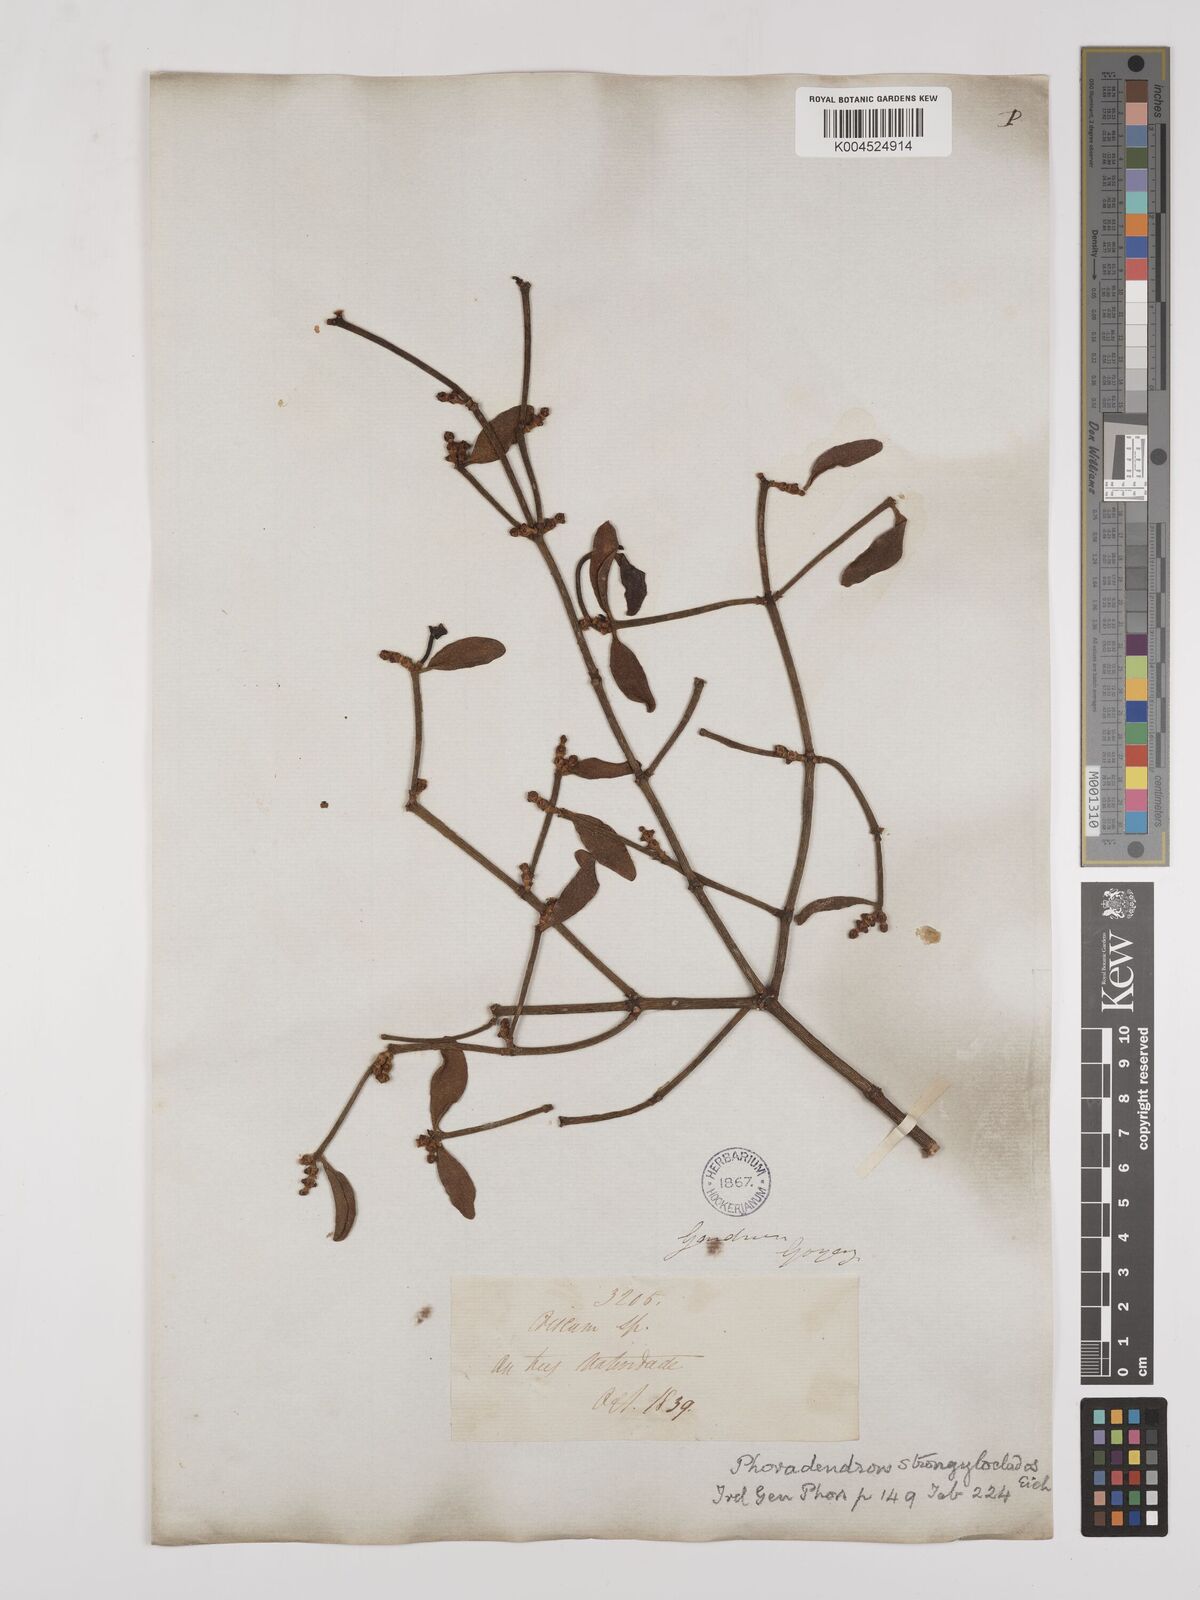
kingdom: Plantae
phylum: Tracheophyta
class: Magnoliopsida
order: Santalales
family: Viscaceae
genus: Phoradendron
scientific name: Phoradendron strongyloclados
